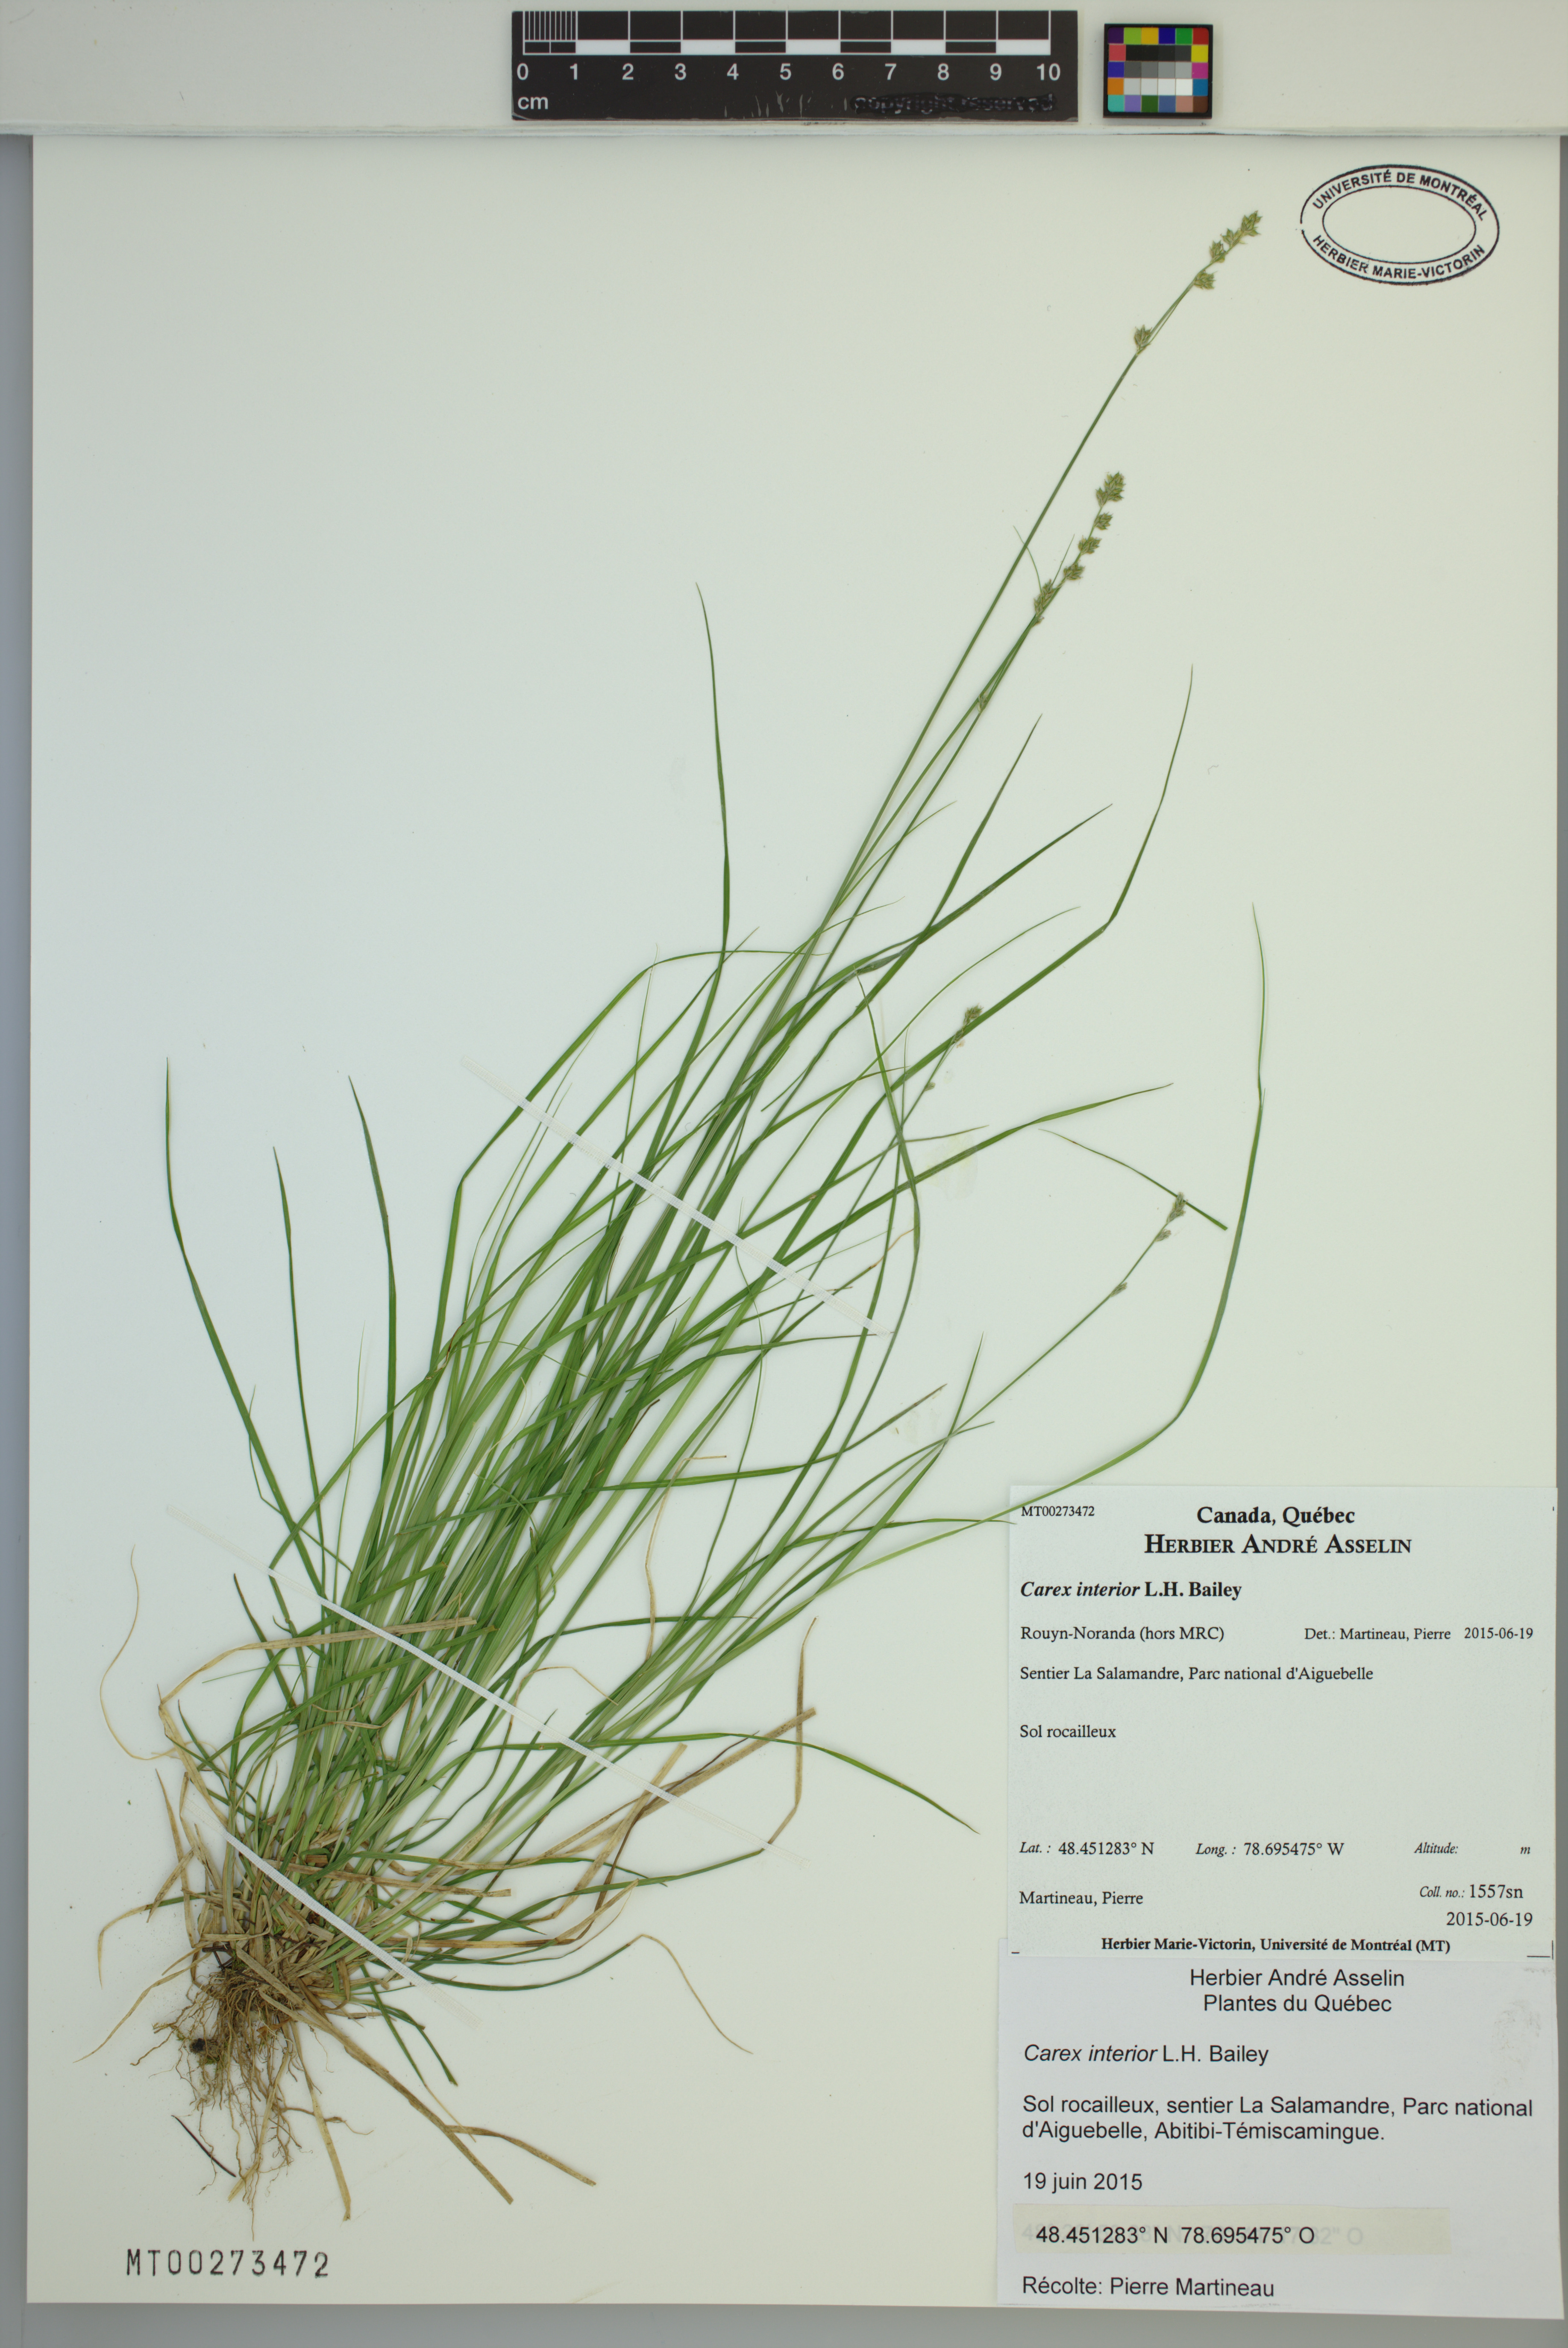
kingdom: Plantae
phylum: Tracheophyta
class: Liliopsida
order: Poales
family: Cyperaceae
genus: Carex
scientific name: Carex interior
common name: Inland sedge
